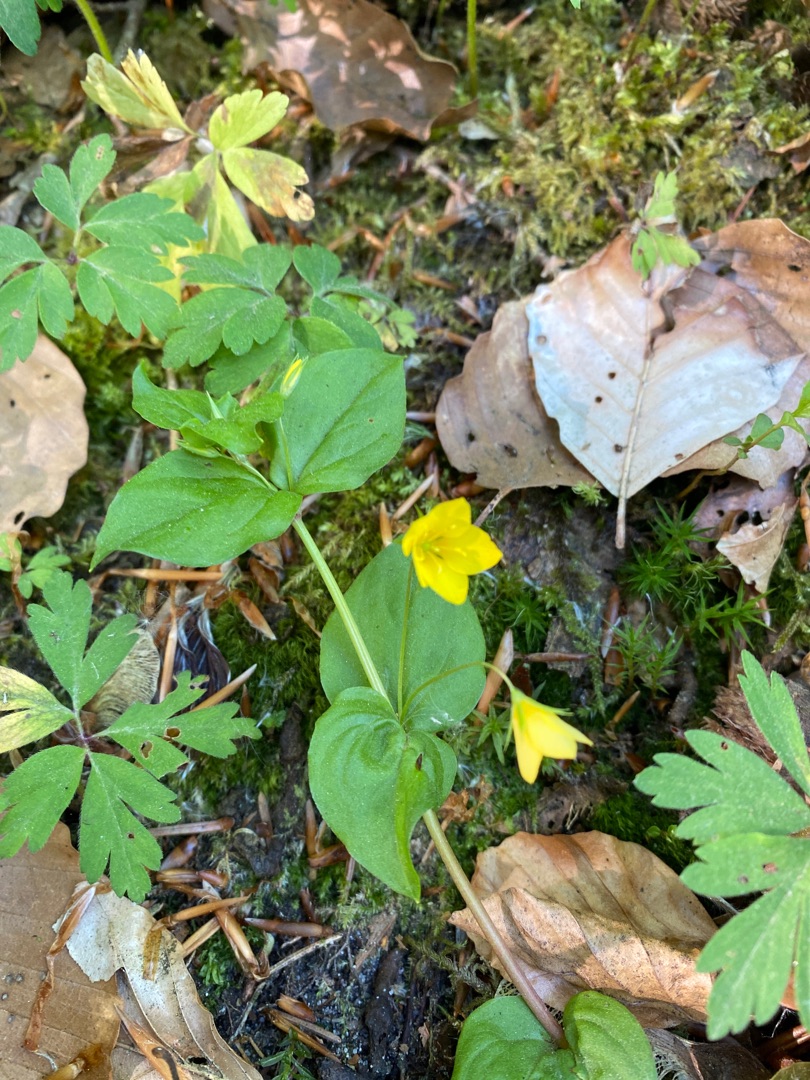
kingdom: Plantae
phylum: Tracheophyta
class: Magnoliopsida
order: Ericales
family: Primulaceae
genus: Lysimachia
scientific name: Lysimachia nemorum
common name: Lund-fredløs
